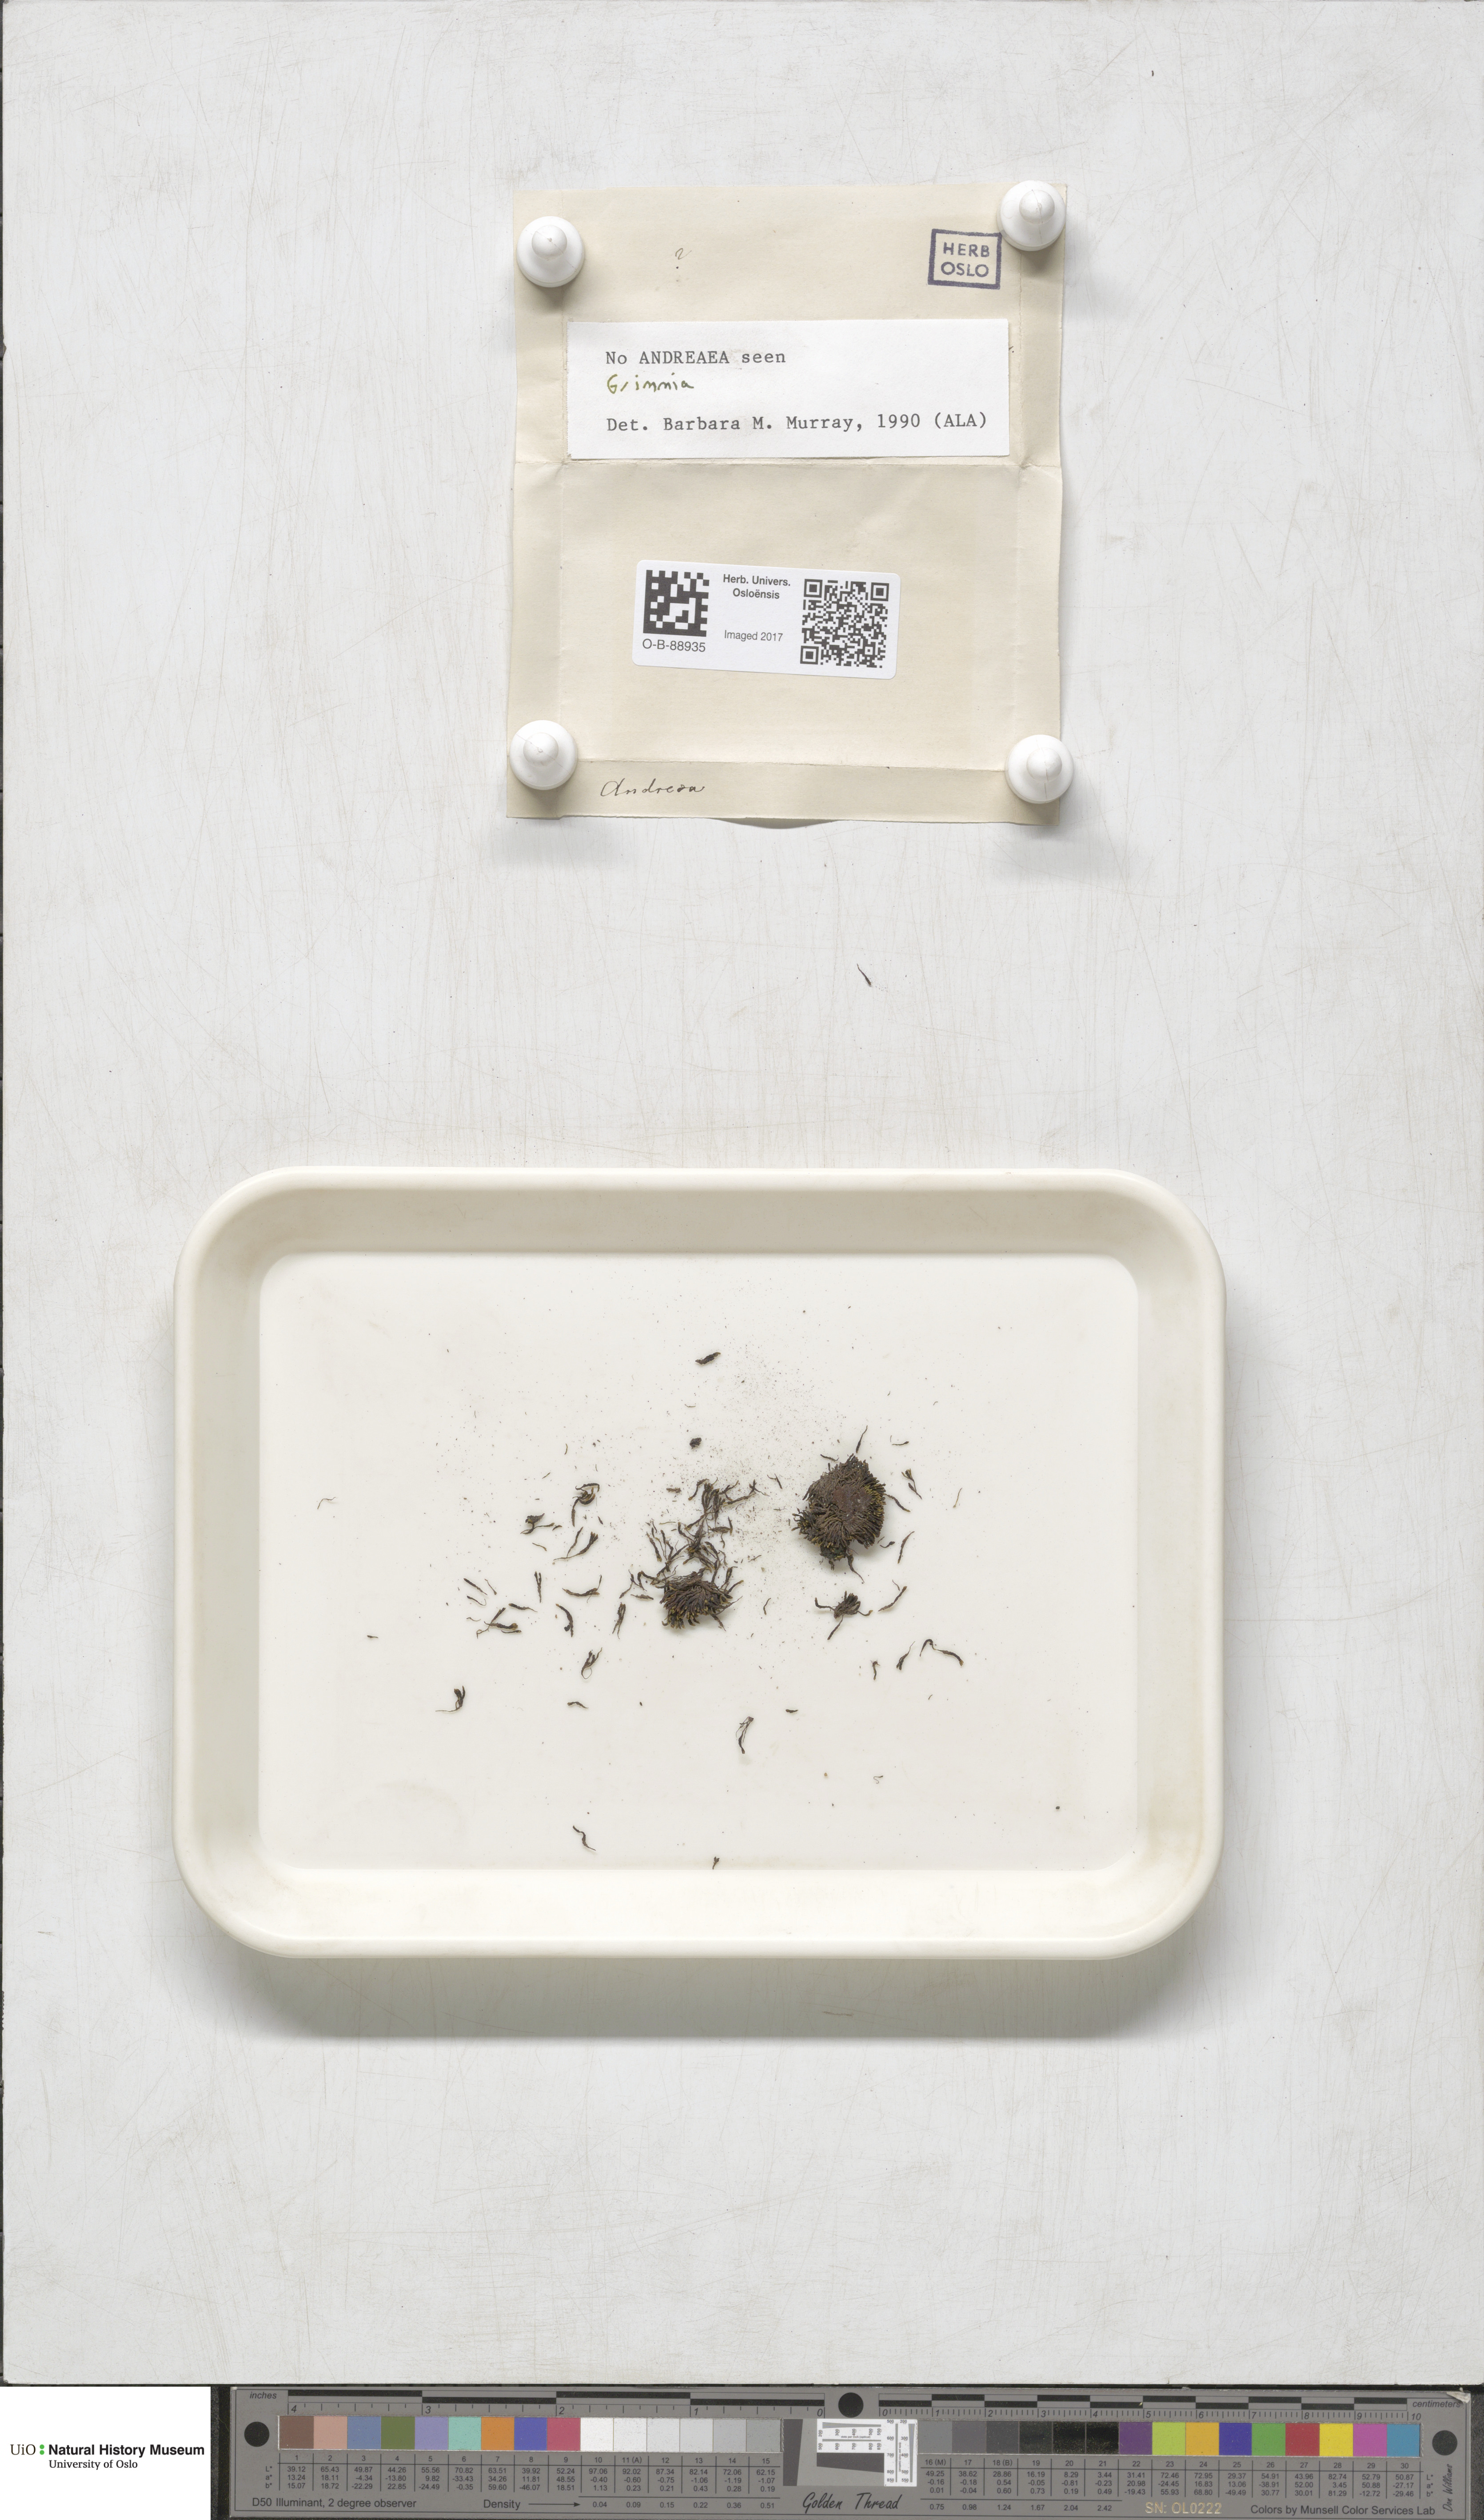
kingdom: Plantae
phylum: Bryophyta
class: Bryopsida
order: Grimmiales
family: Grimmiaceae
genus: Grimmia
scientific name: Grimmia
